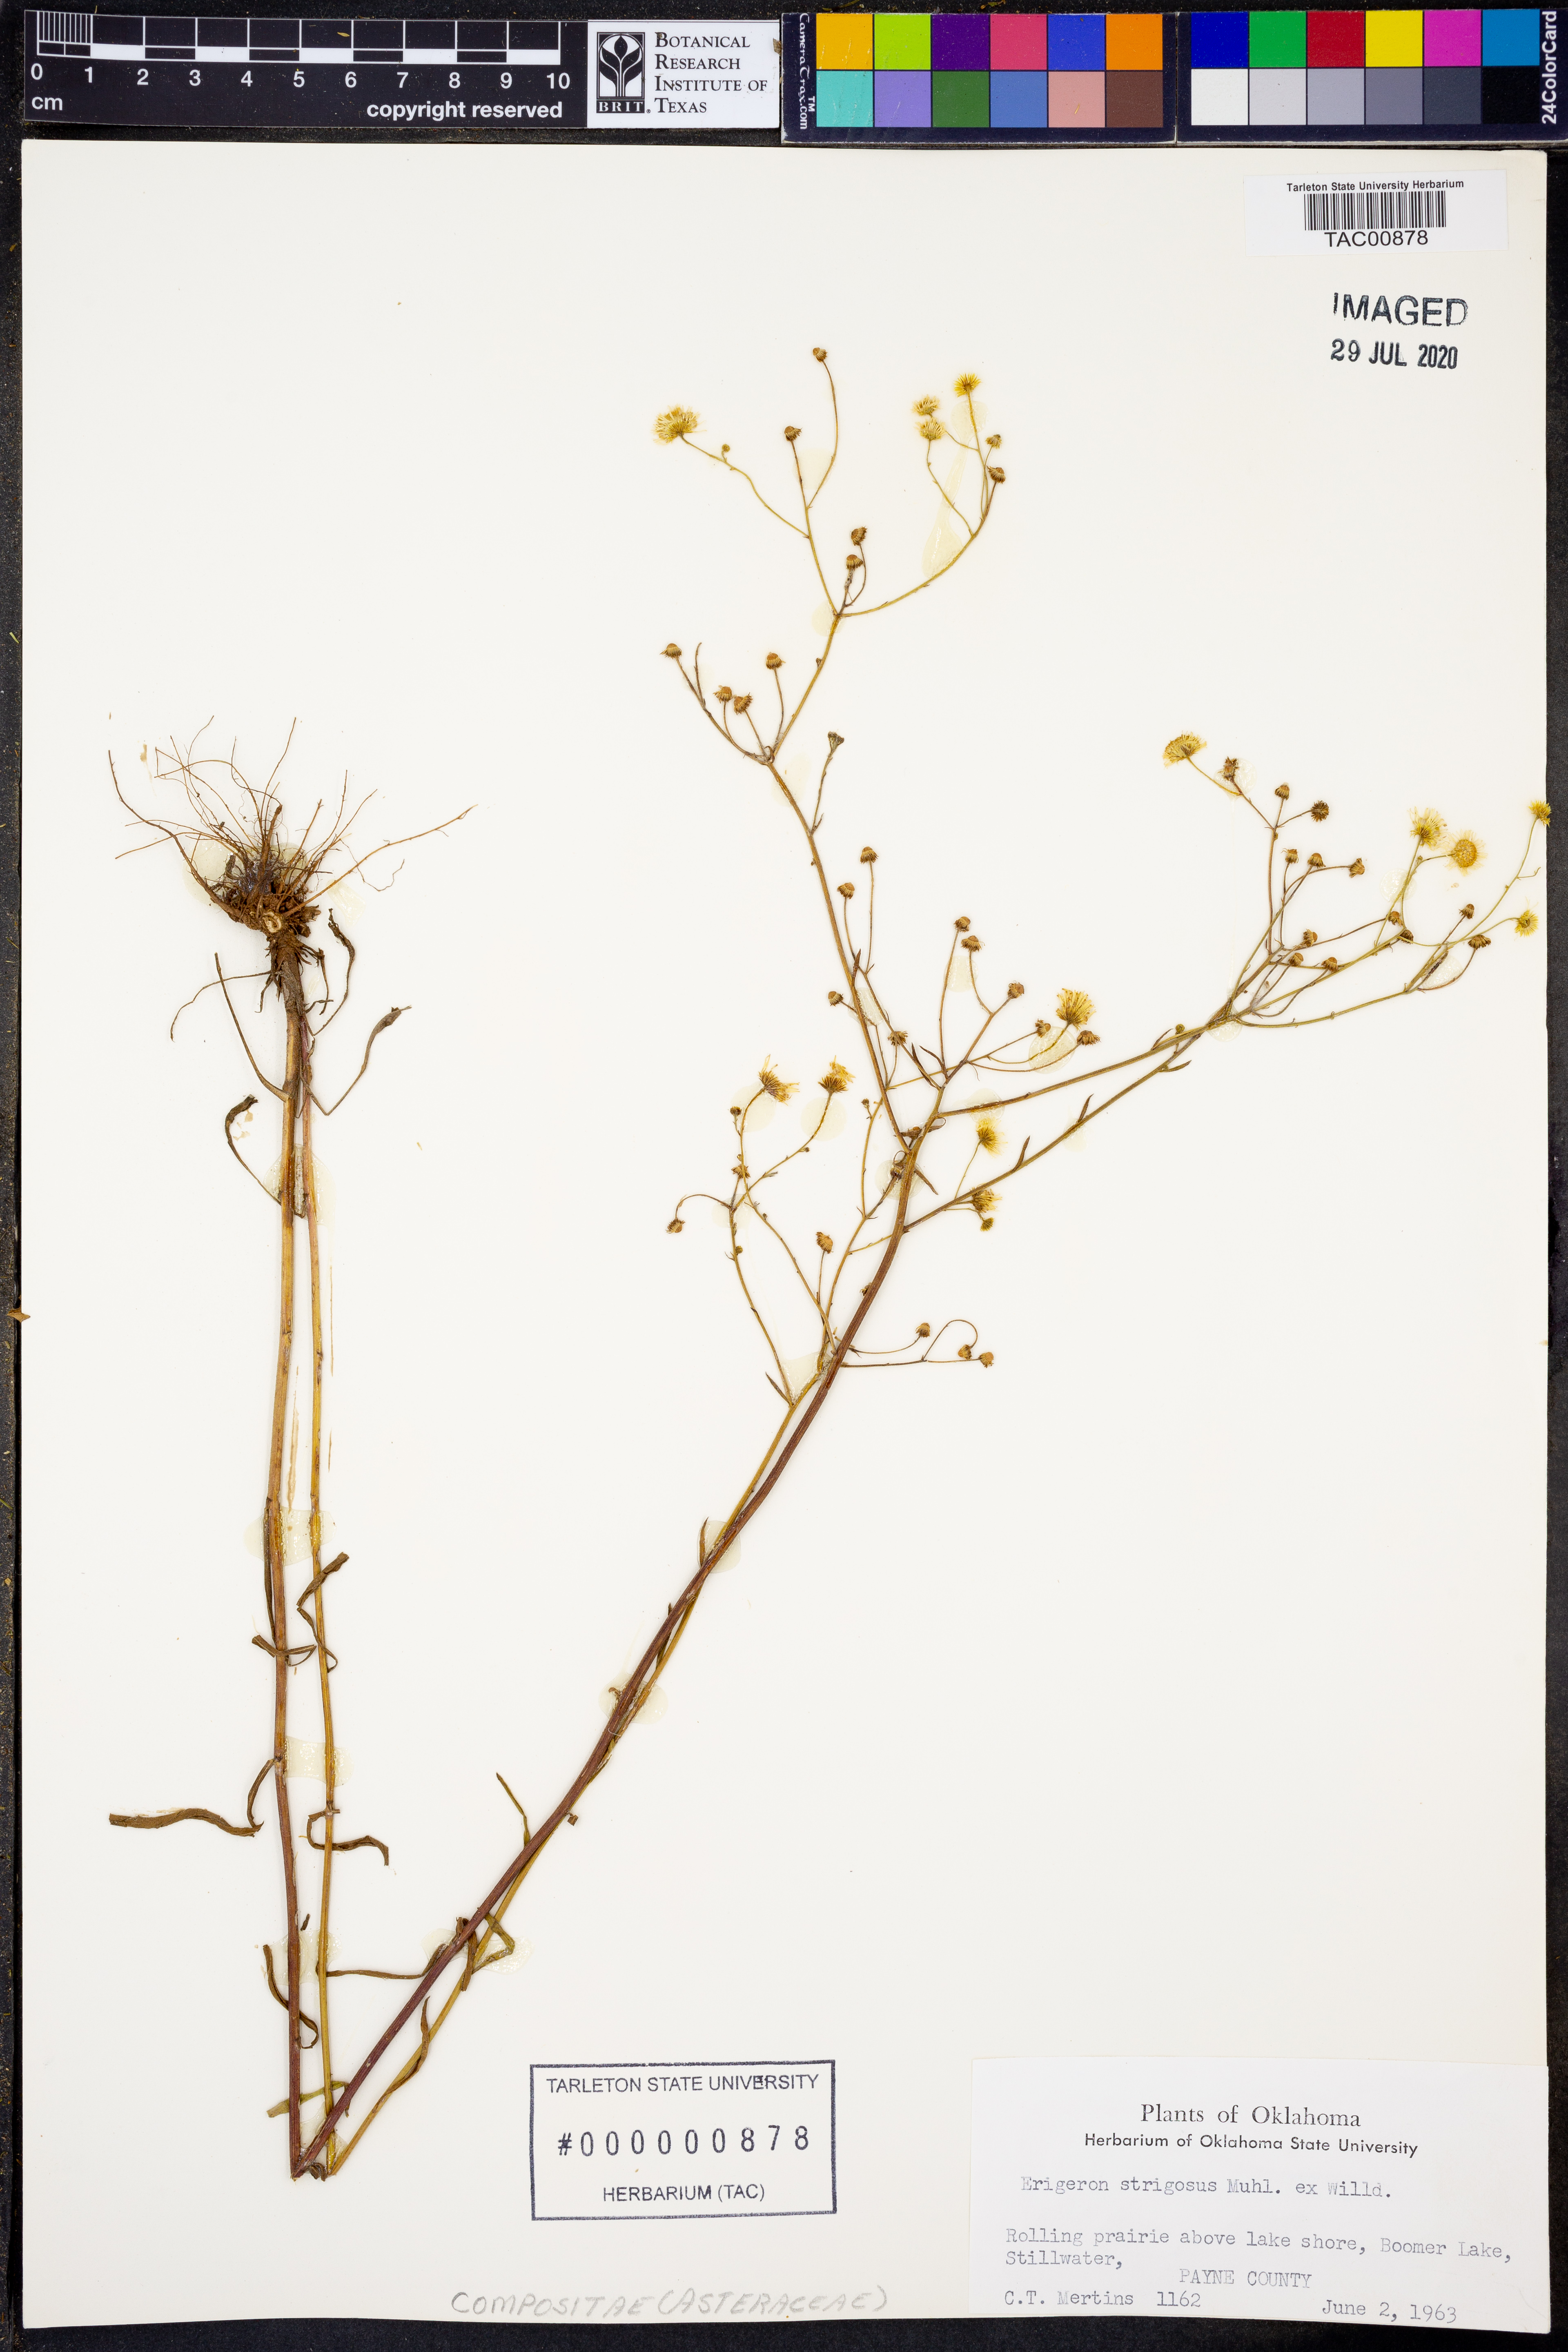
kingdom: Plantae
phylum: Tracheophyta
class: Magnoliopsida
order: Asterales
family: Asteraceae
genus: Erigeron
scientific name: Erigeron strigosus
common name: Common eastern fleabane
